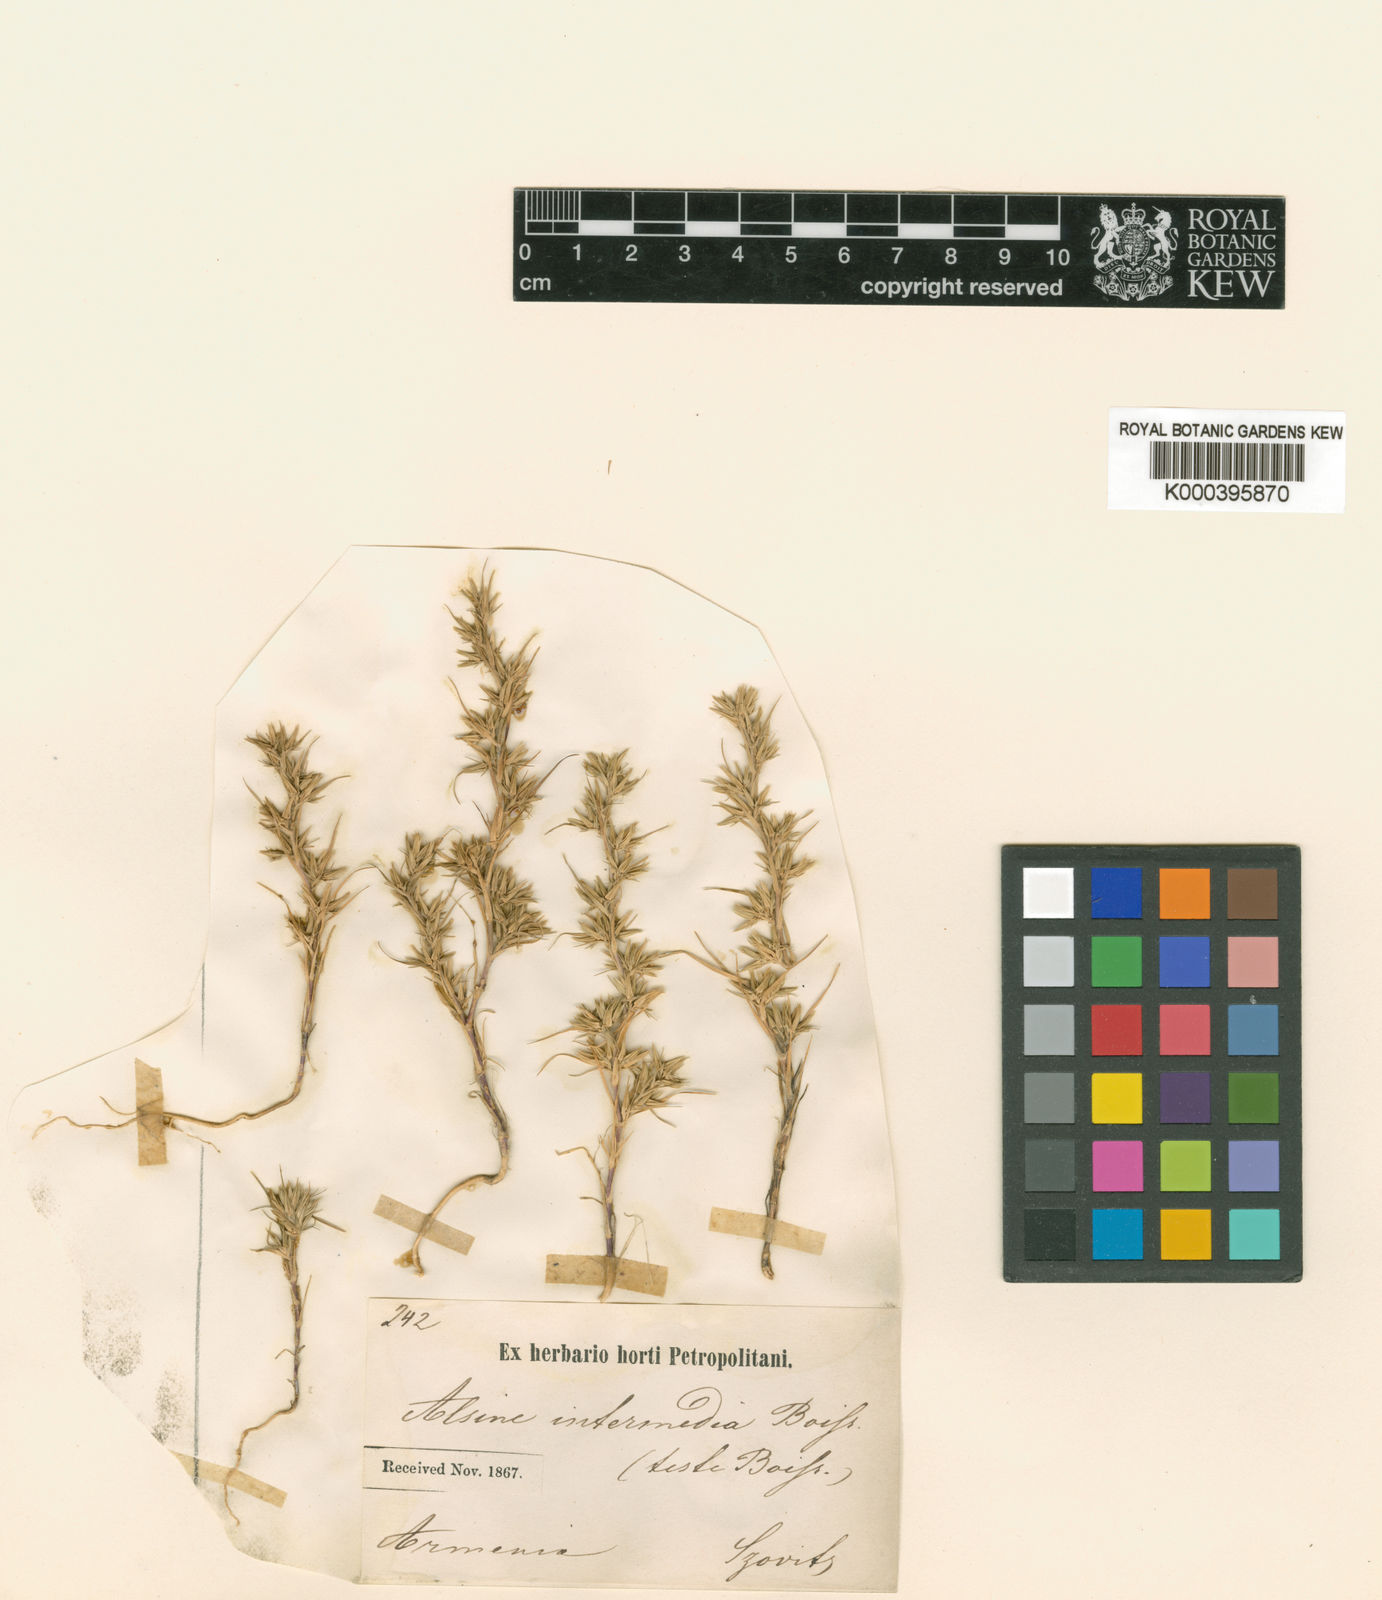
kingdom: Plantae
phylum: Tracheophyta
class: Magnoliopsida
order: Caryophyllales
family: Caryophyllaceae
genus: Minuartia
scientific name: Minuartia intermedia
